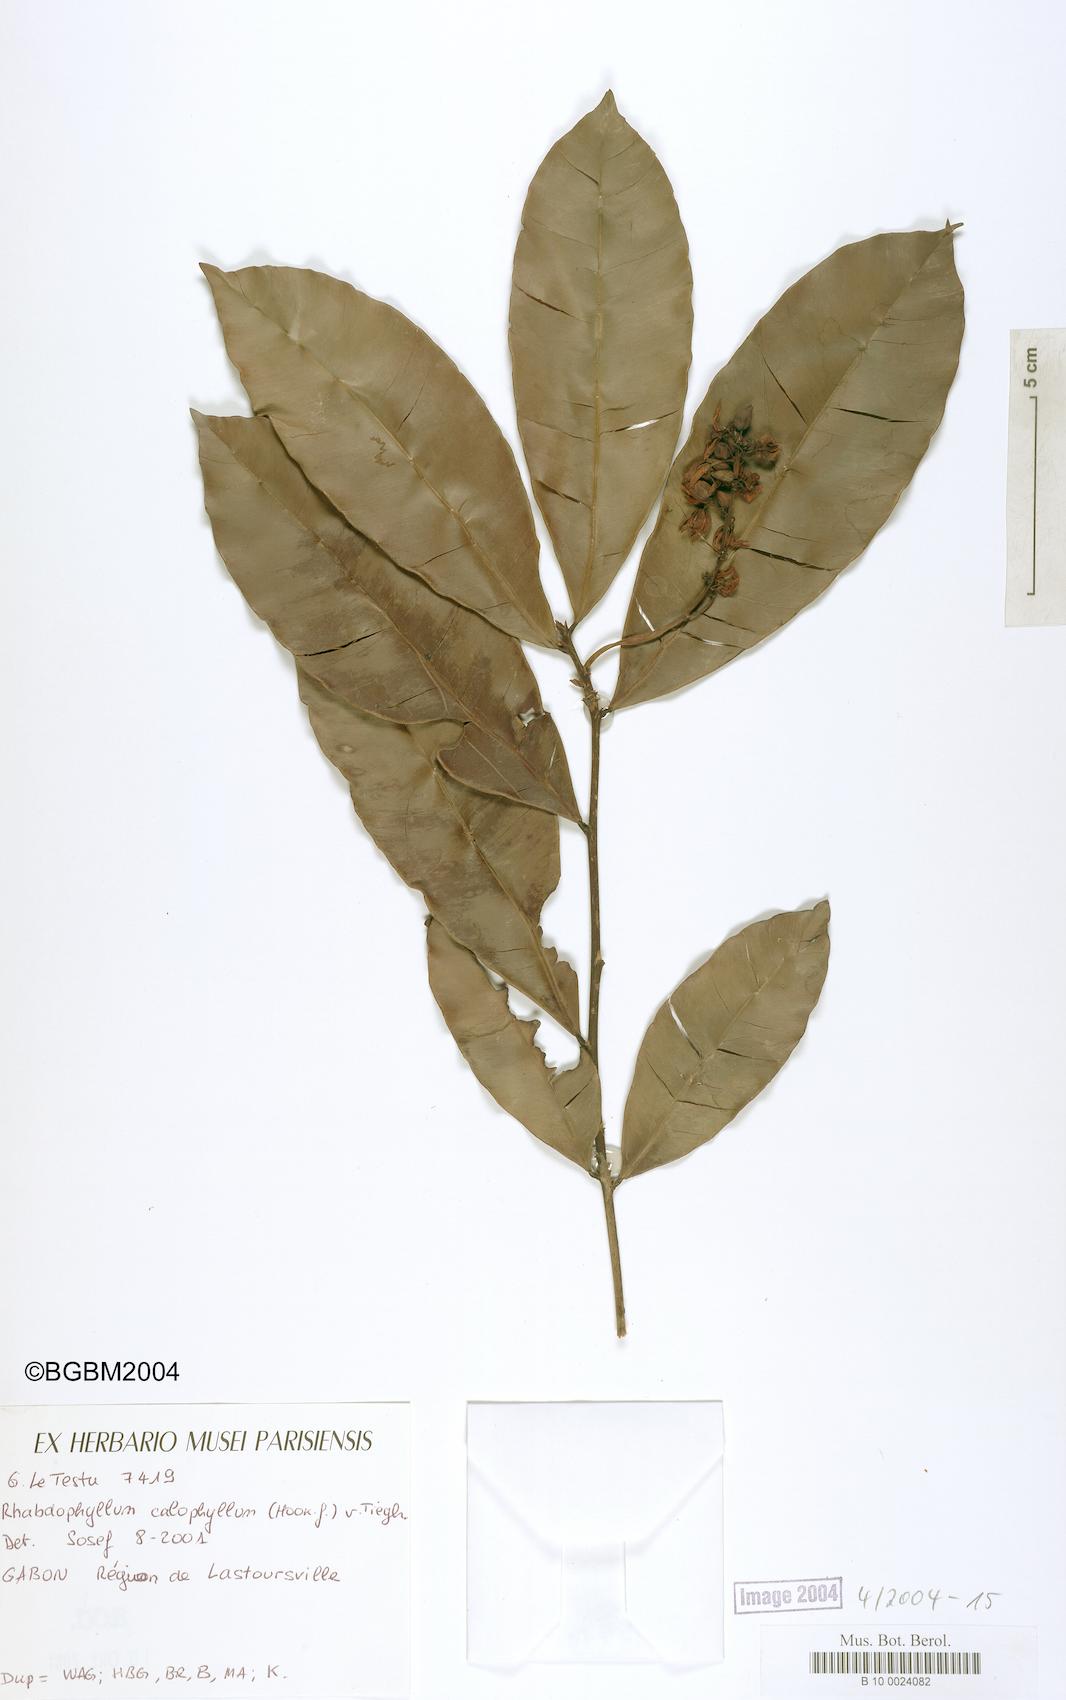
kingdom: Plantae
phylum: Tracheophyta
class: Magnoliopsida
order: Malpighiales
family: Ochnaceae
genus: Rhabdophyllum
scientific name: Rhabdophyllum calophyllum
